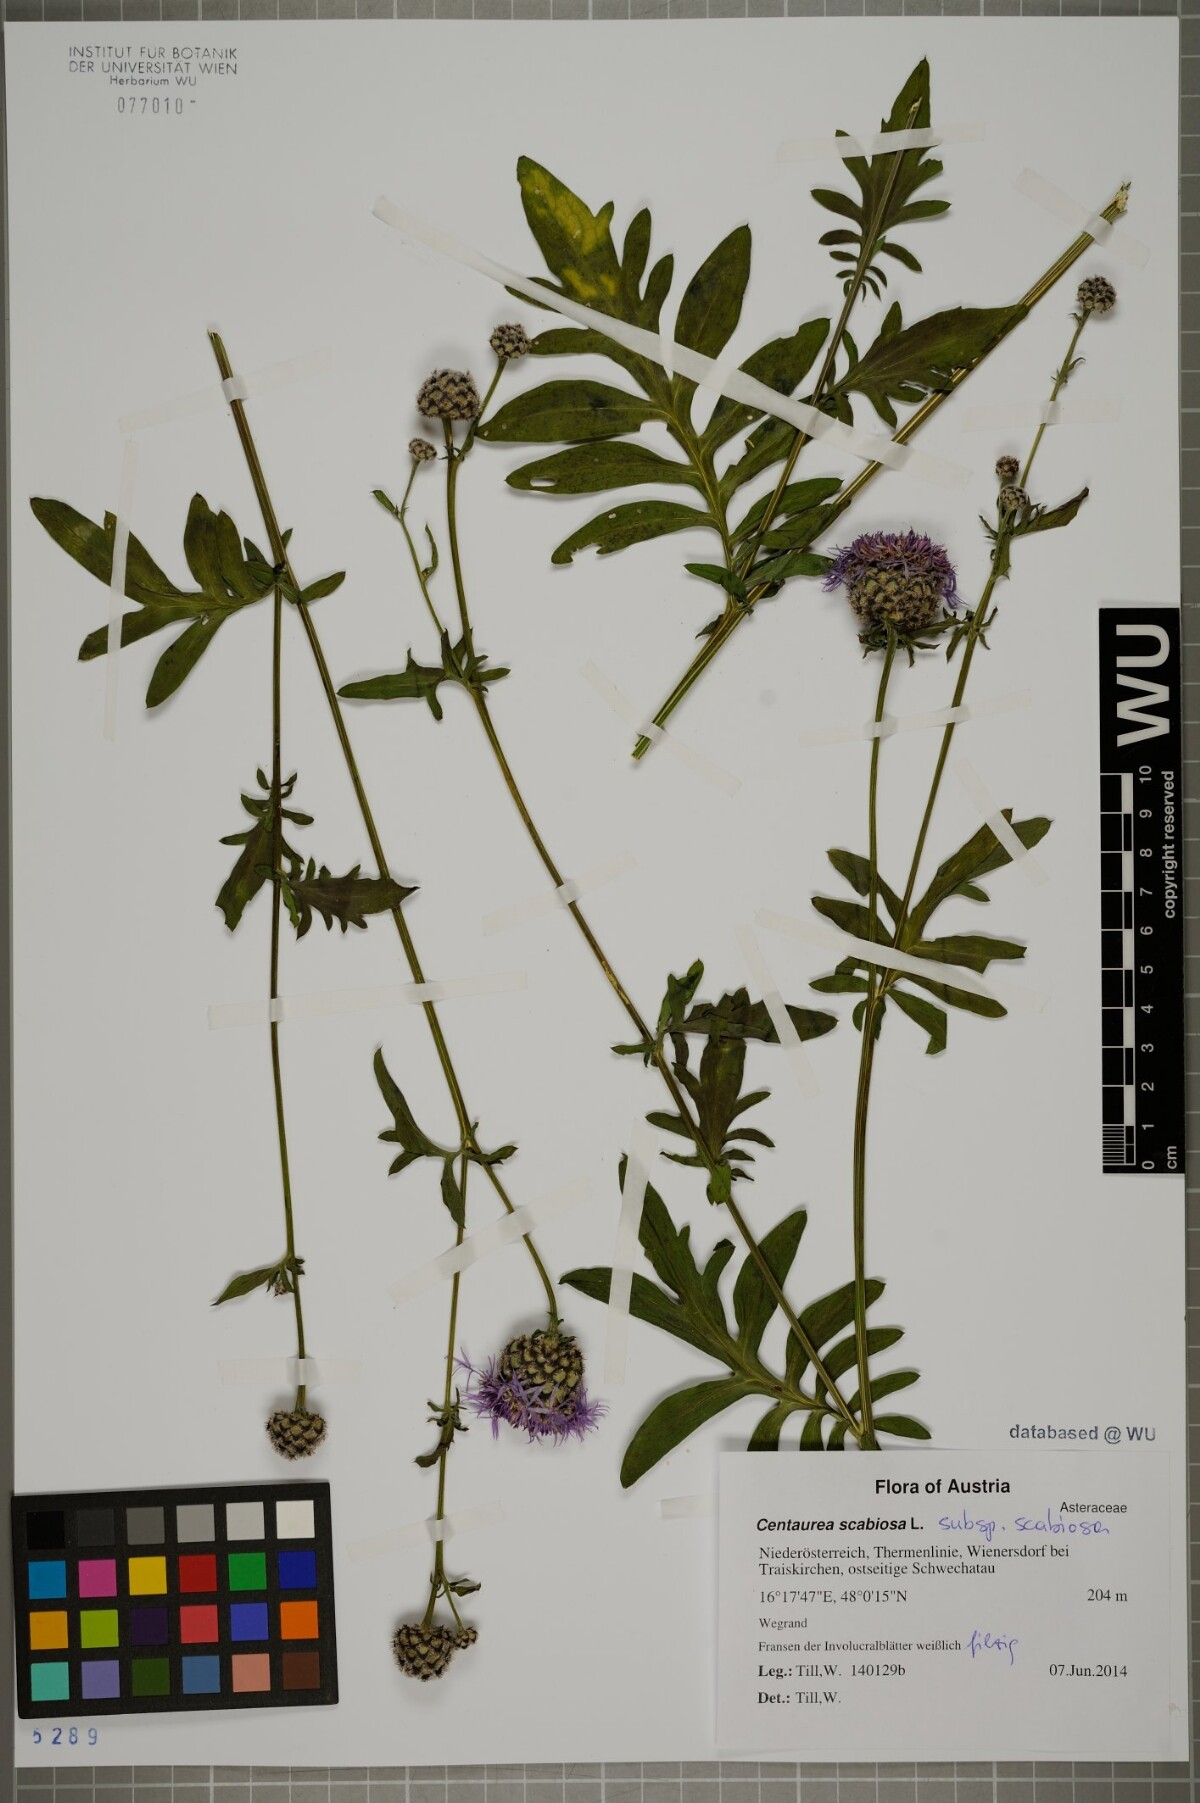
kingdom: Plantae
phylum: Tracheophyta
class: Magnoliopsida
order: Asterales
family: Asteraceae
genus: Centaurea
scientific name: Centaurea scabiosa
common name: Greater knapweed
